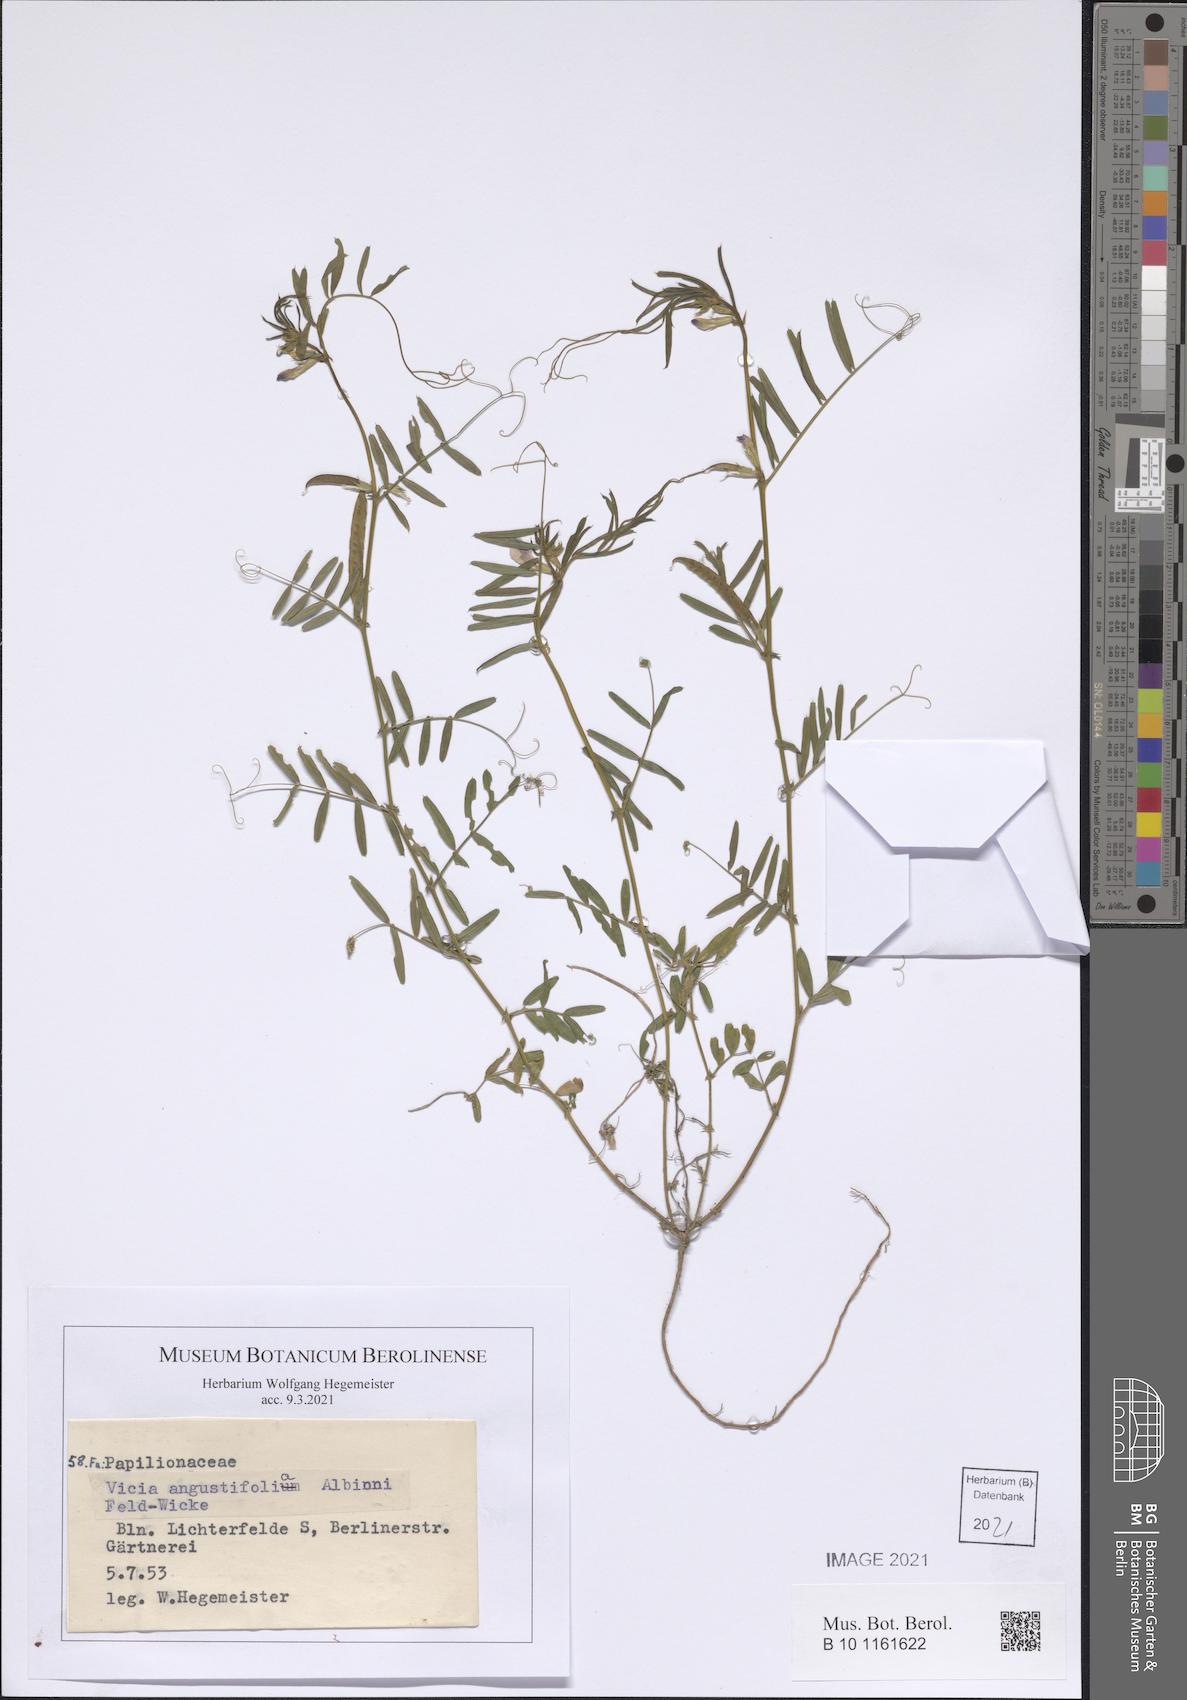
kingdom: Plantae
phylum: Tracheophyta
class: Magnoliopsida
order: Fabales
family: Fabaceae
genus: Vicia
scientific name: Vicia sativa
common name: Garden vetch
